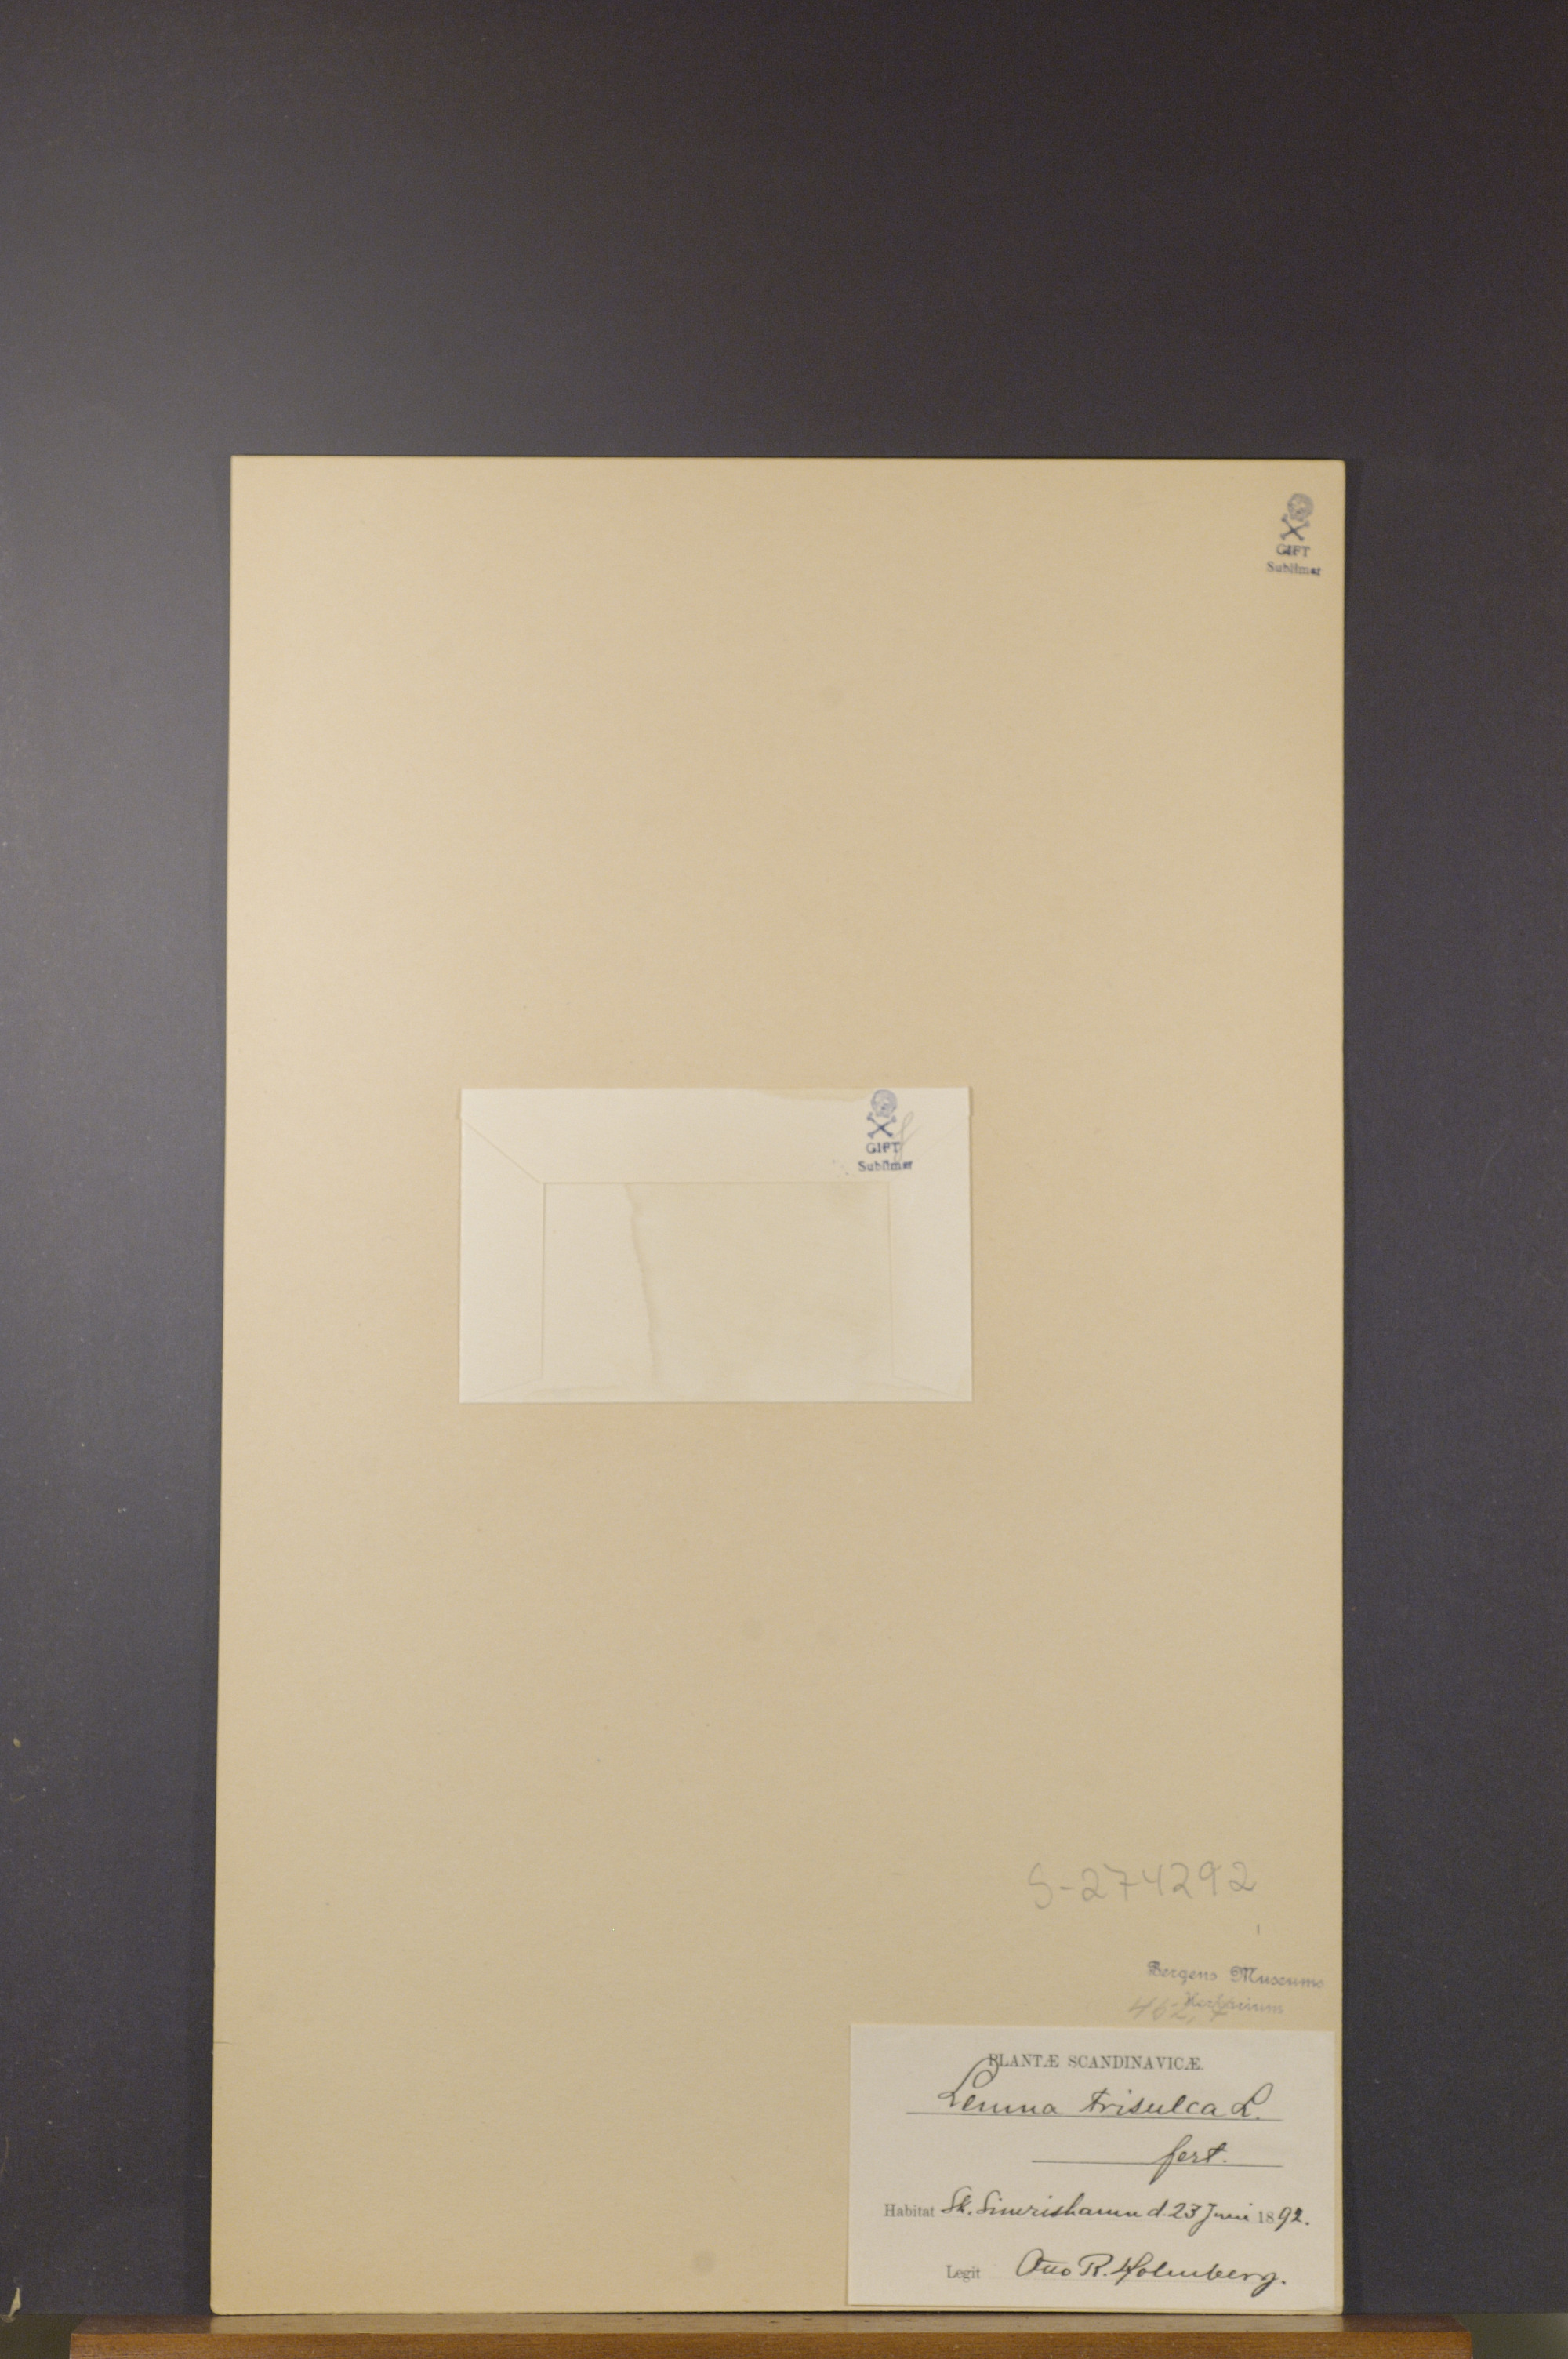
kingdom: Plantae
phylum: Tracheophyta
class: Liliopsida
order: Alismatales
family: Araceae
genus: Lemna
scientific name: Lemna trisulca
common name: Ivy-leaved duckweed
